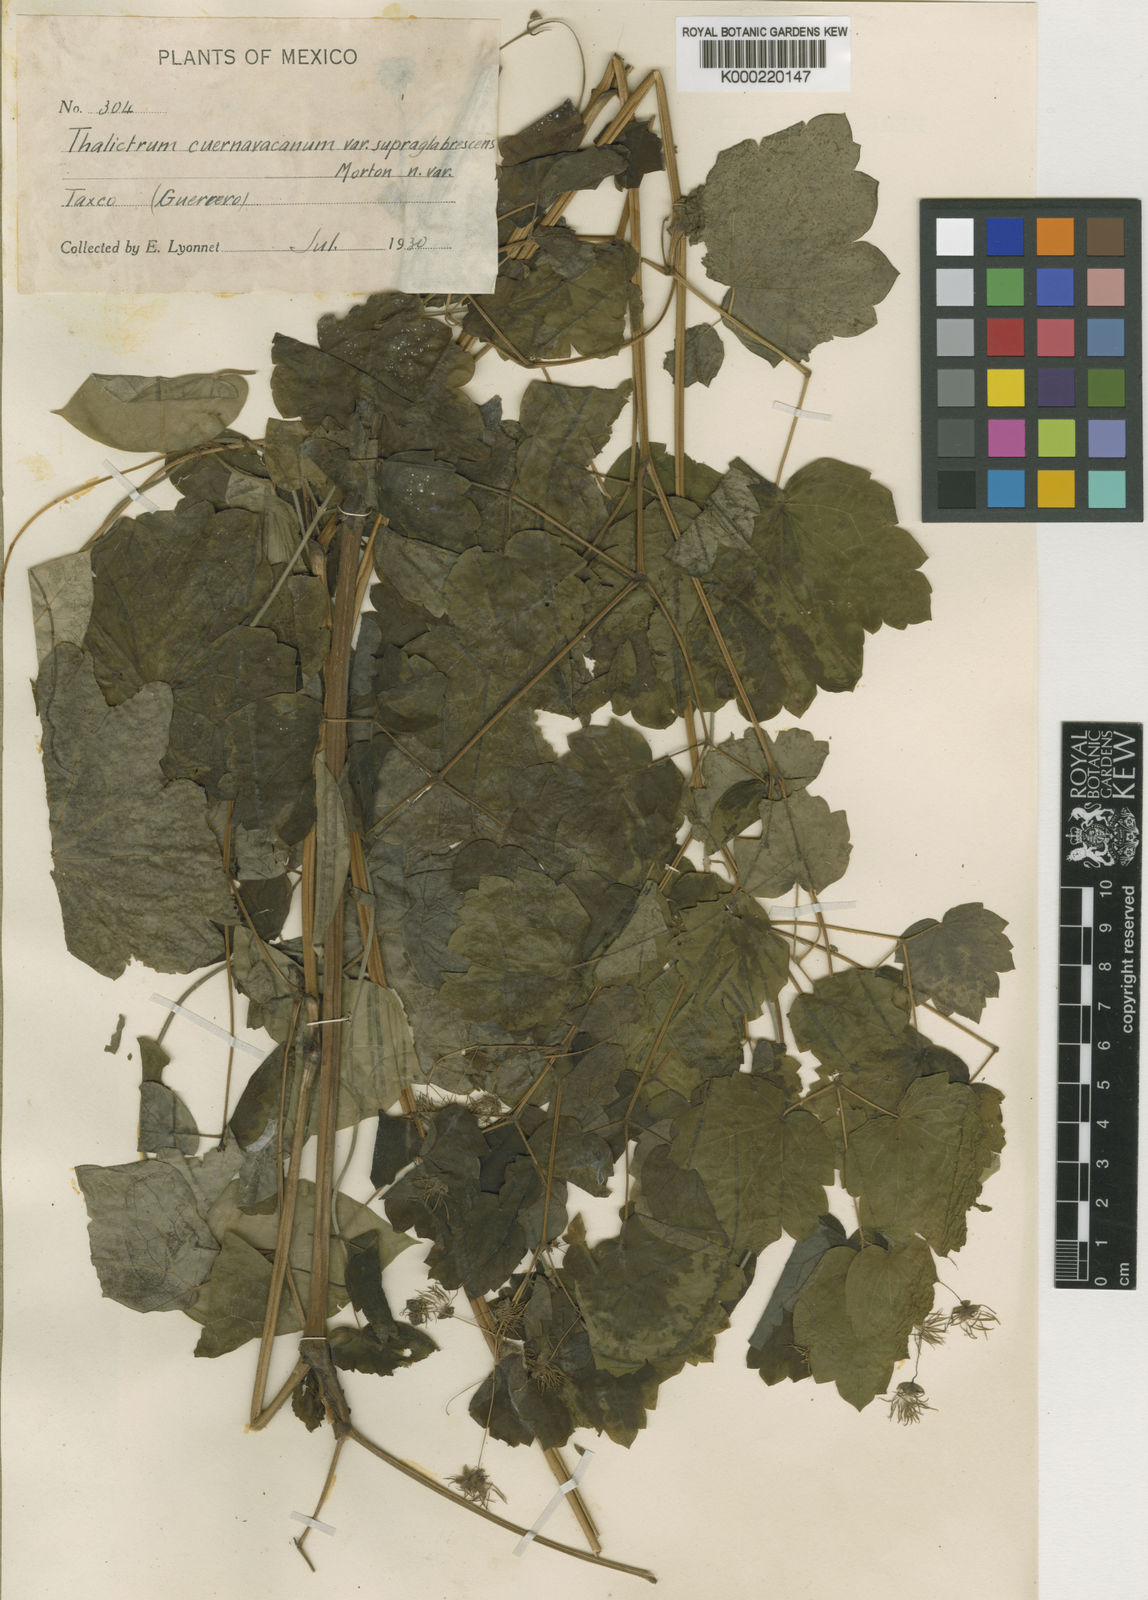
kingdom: Plantae
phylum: Tracheophyta
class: Magnoliopsida
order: Ranunculales
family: Ranunculaceae
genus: Thalictrum
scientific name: Thalictrum cuernavacanum
